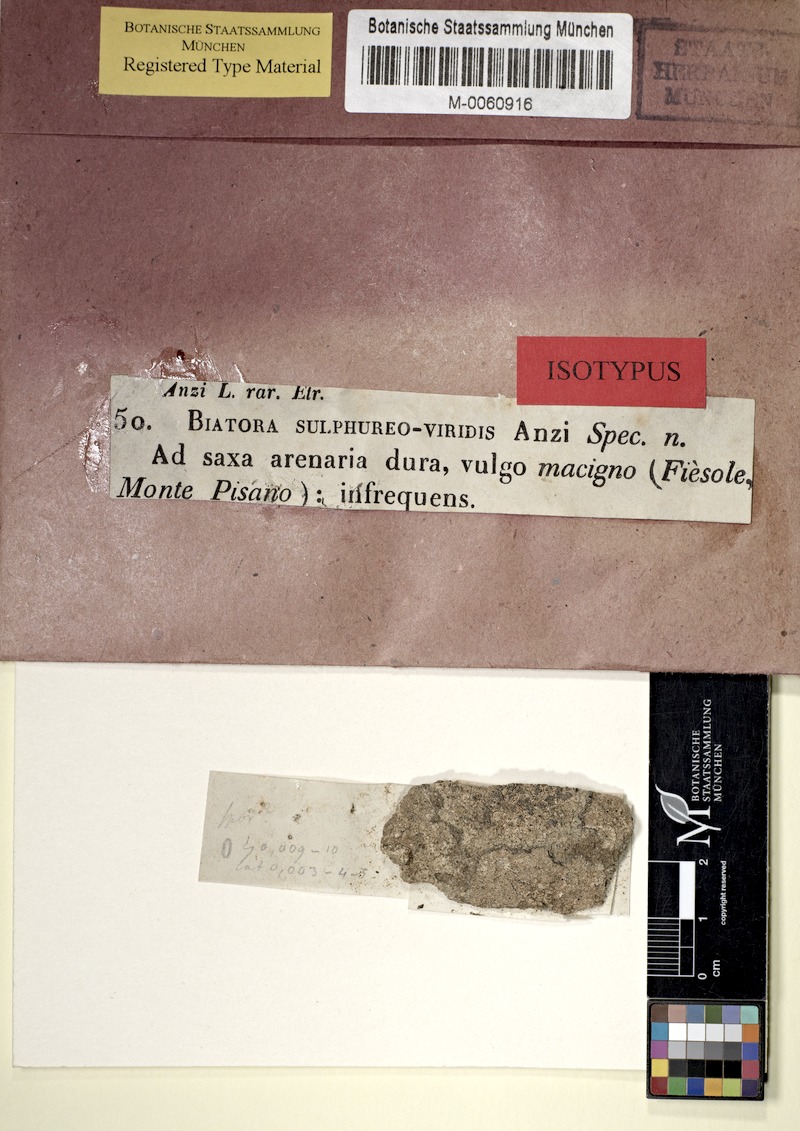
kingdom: Fungi
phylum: Ascomycota
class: Lecanoromycetes
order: Lecanorales
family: Ramalinaceae
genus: Biatora
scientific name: Biatora
